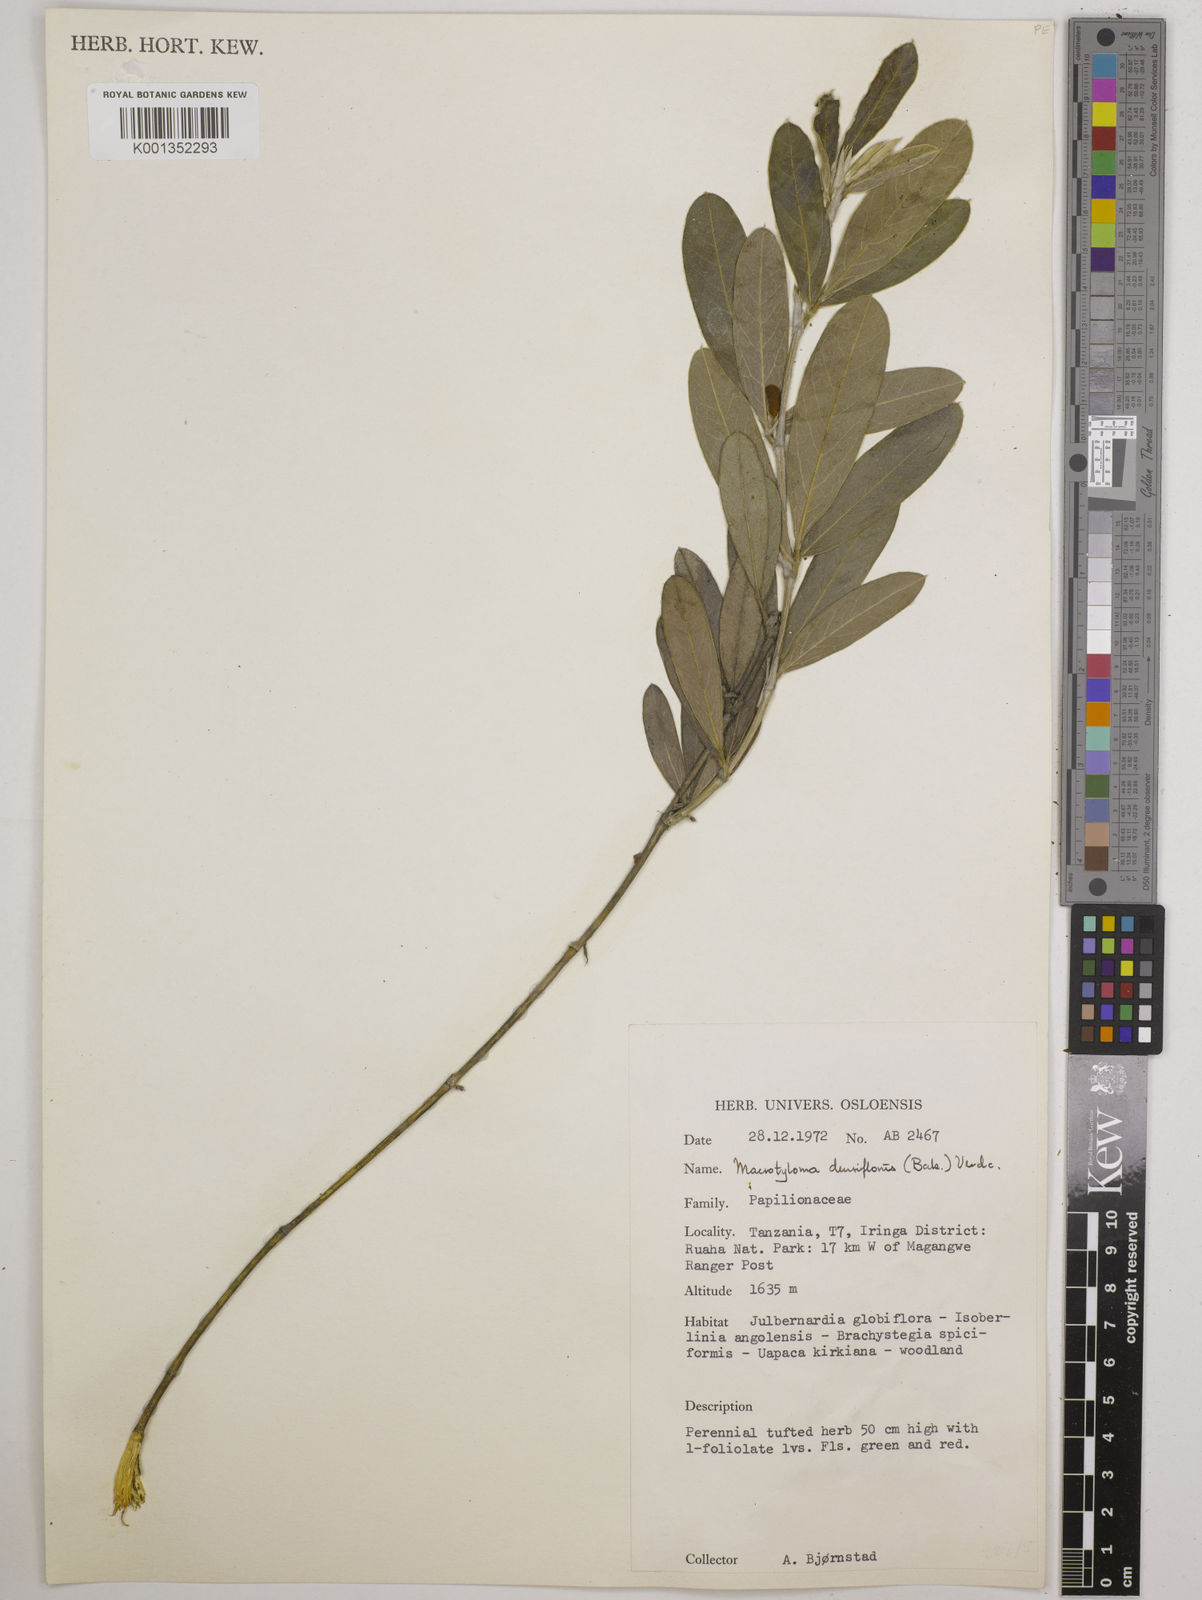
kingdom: Plantae
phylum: Tracheophyta
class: Magnoliopsida
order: Fabales
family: Fabaceae
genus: Macrotyloma
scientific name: Macrotyloma densiflorum
